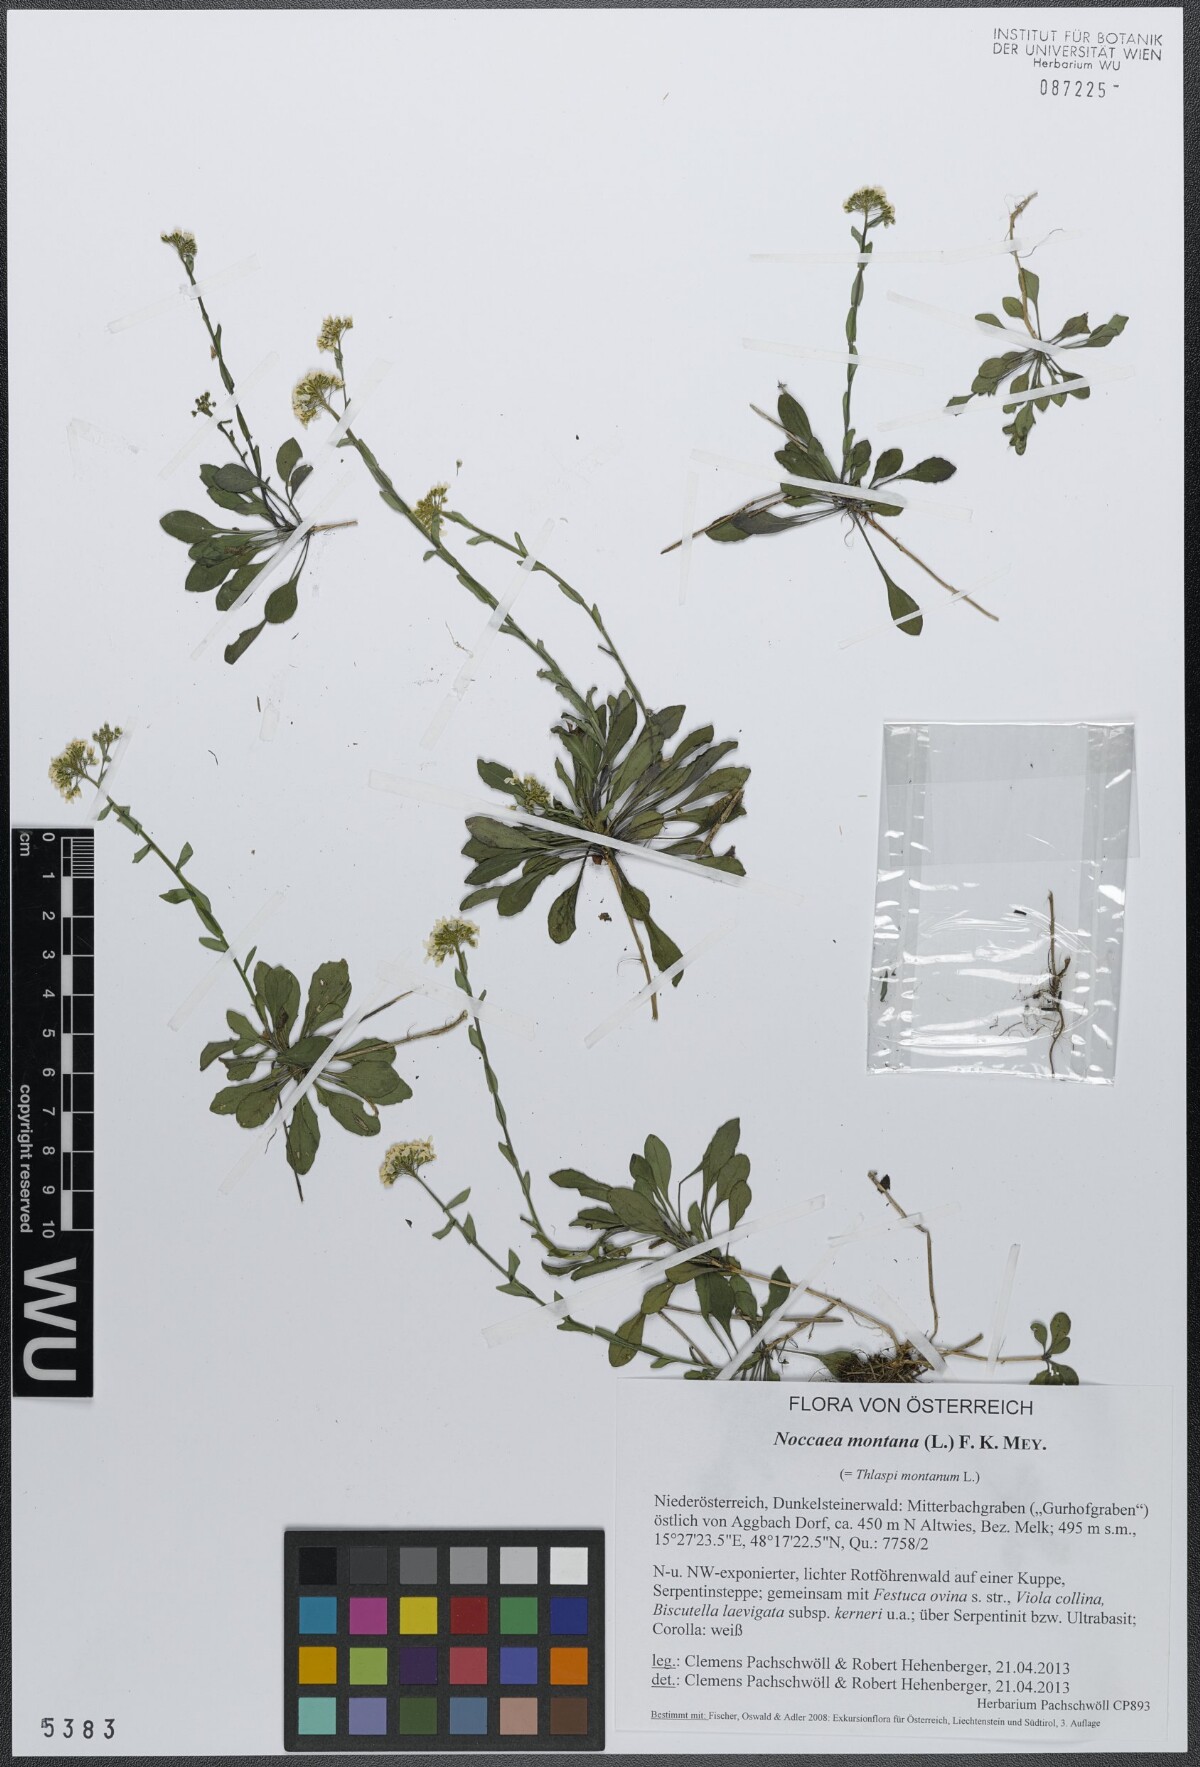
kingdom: Plantae
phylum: Tracheophyta
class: Magnoliopsida
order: Brassicales
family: Brassicaceae
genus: Noccaea
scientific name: Noccaea montana
